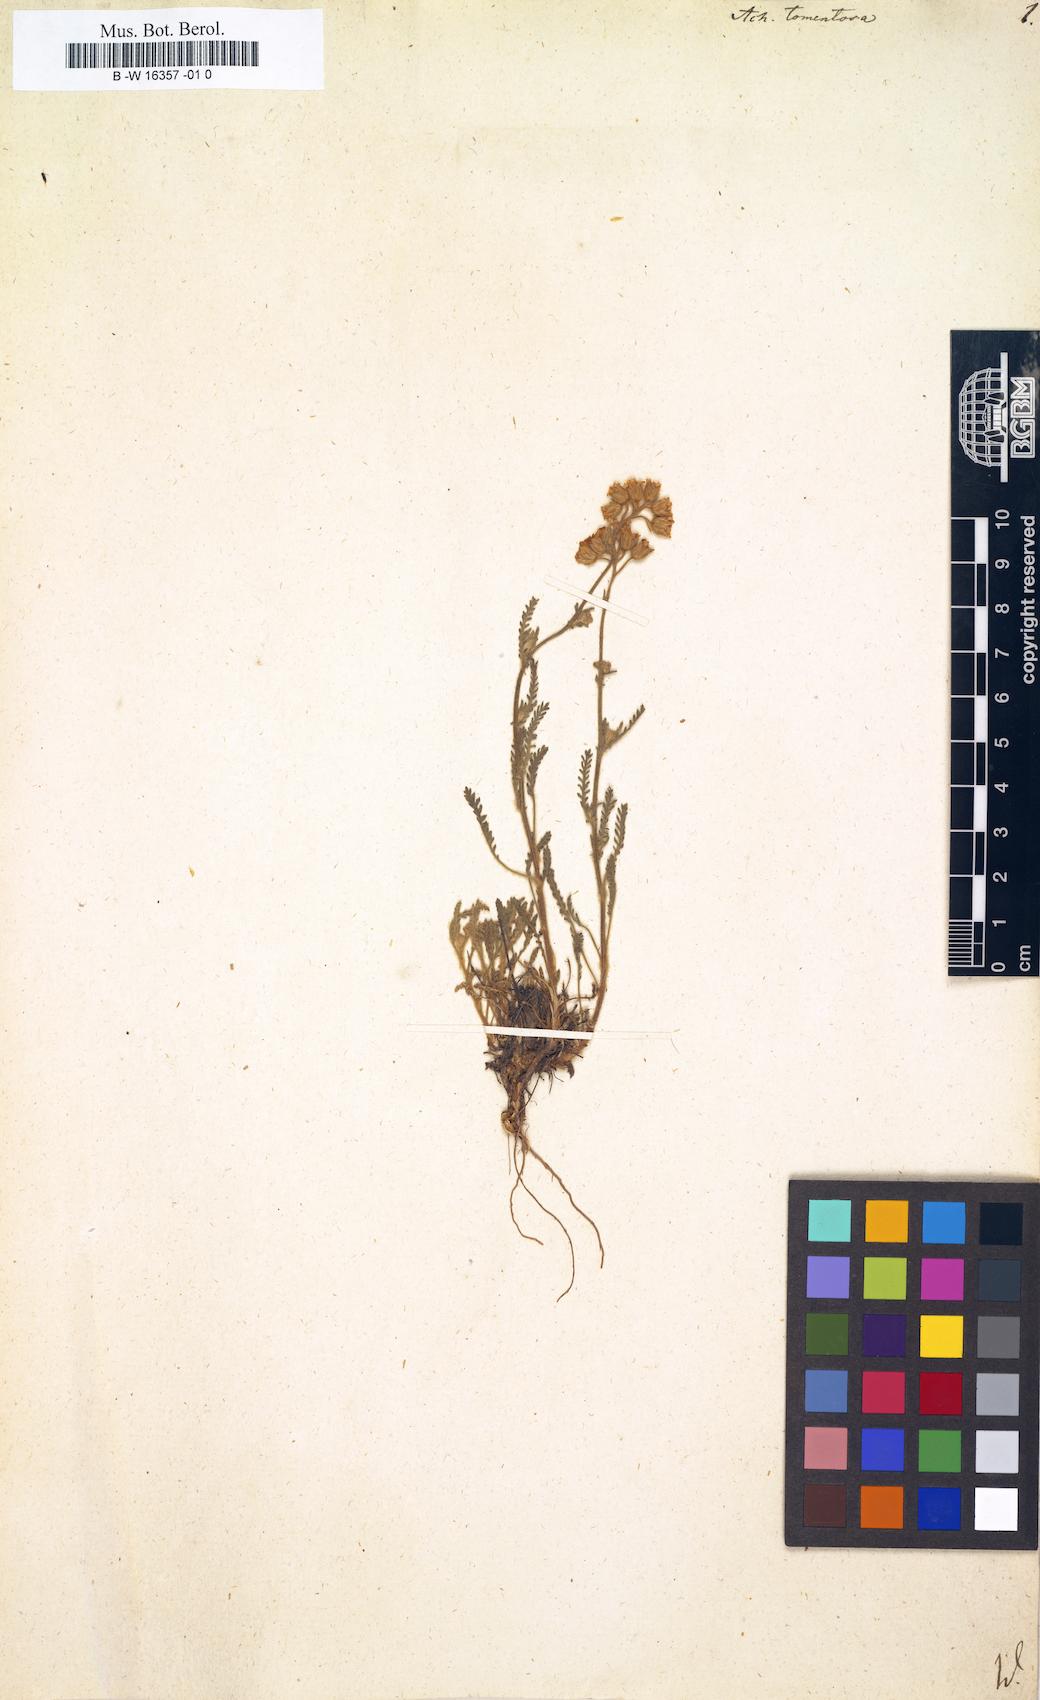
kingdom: Plantae
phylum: Tracheophyta
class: Magnoliopsida
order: Asterales
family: Asteraceae
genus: Achillea
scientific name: Achillea tomentosa
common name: Yellow milfoil
